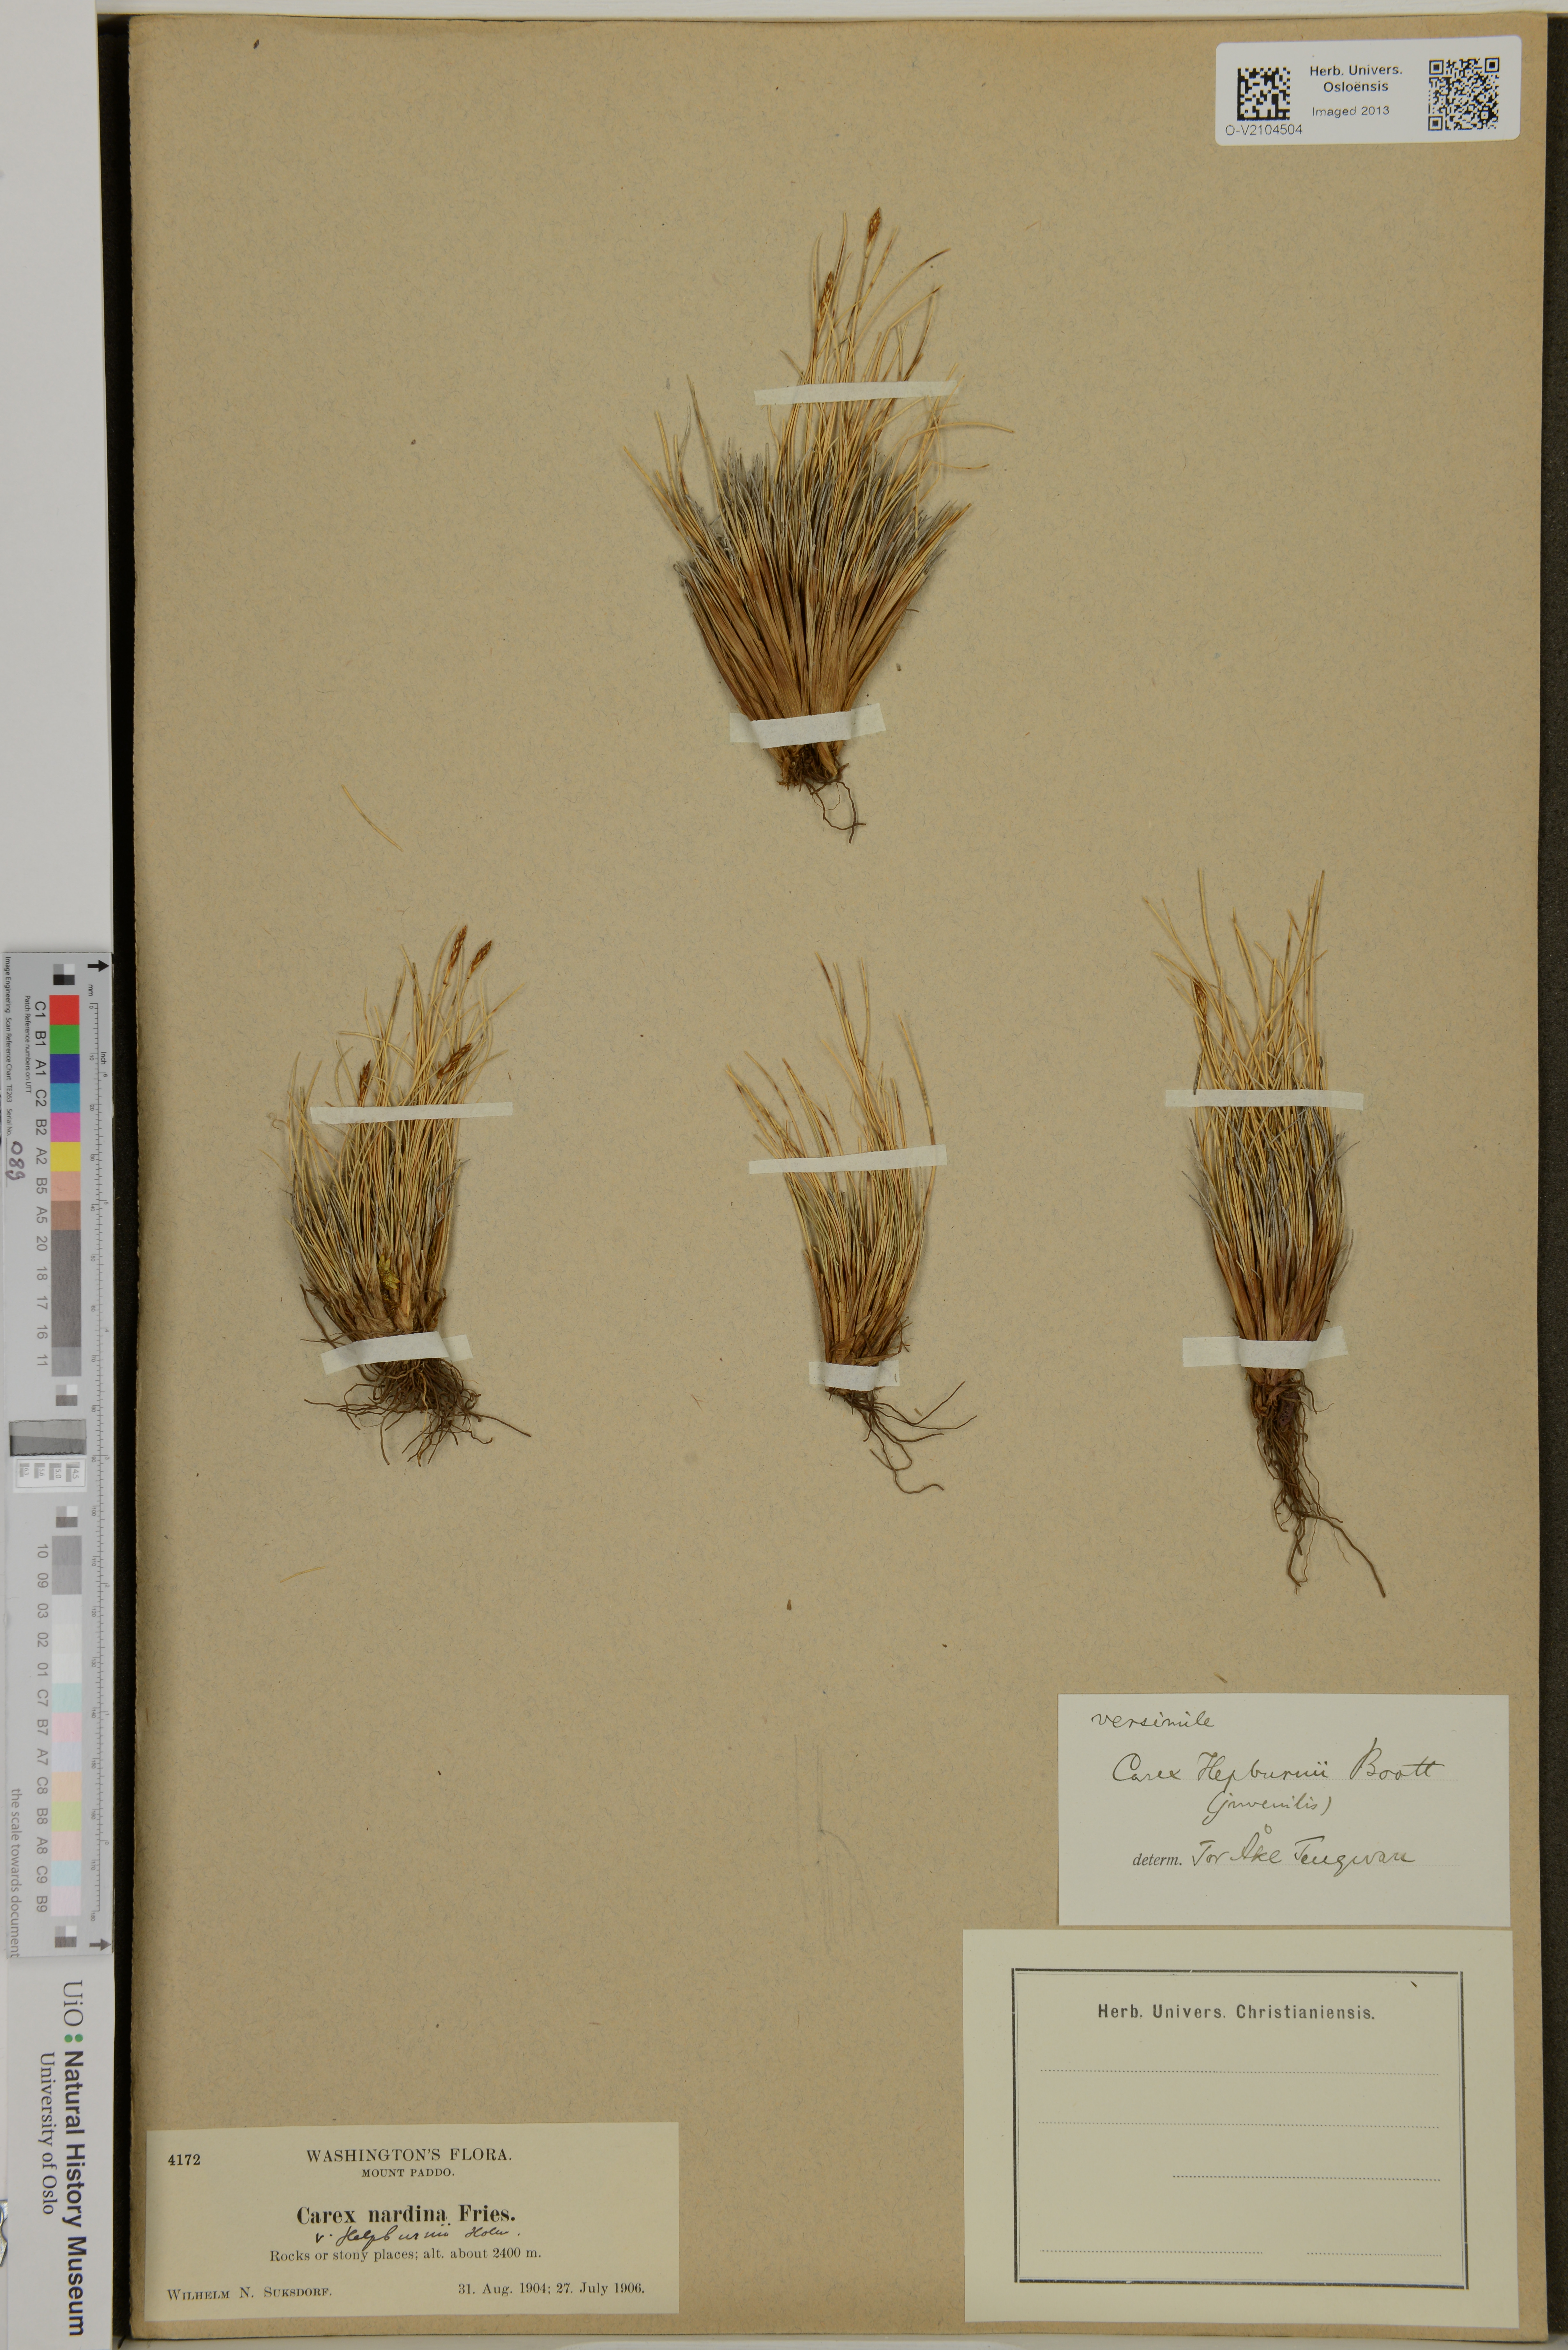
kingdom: Plantae
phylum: Tracheophyta
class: Liliopsida
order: Poales
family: Cyperaceae
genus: Carex
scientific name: Carex nardina
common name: Nard sedge
